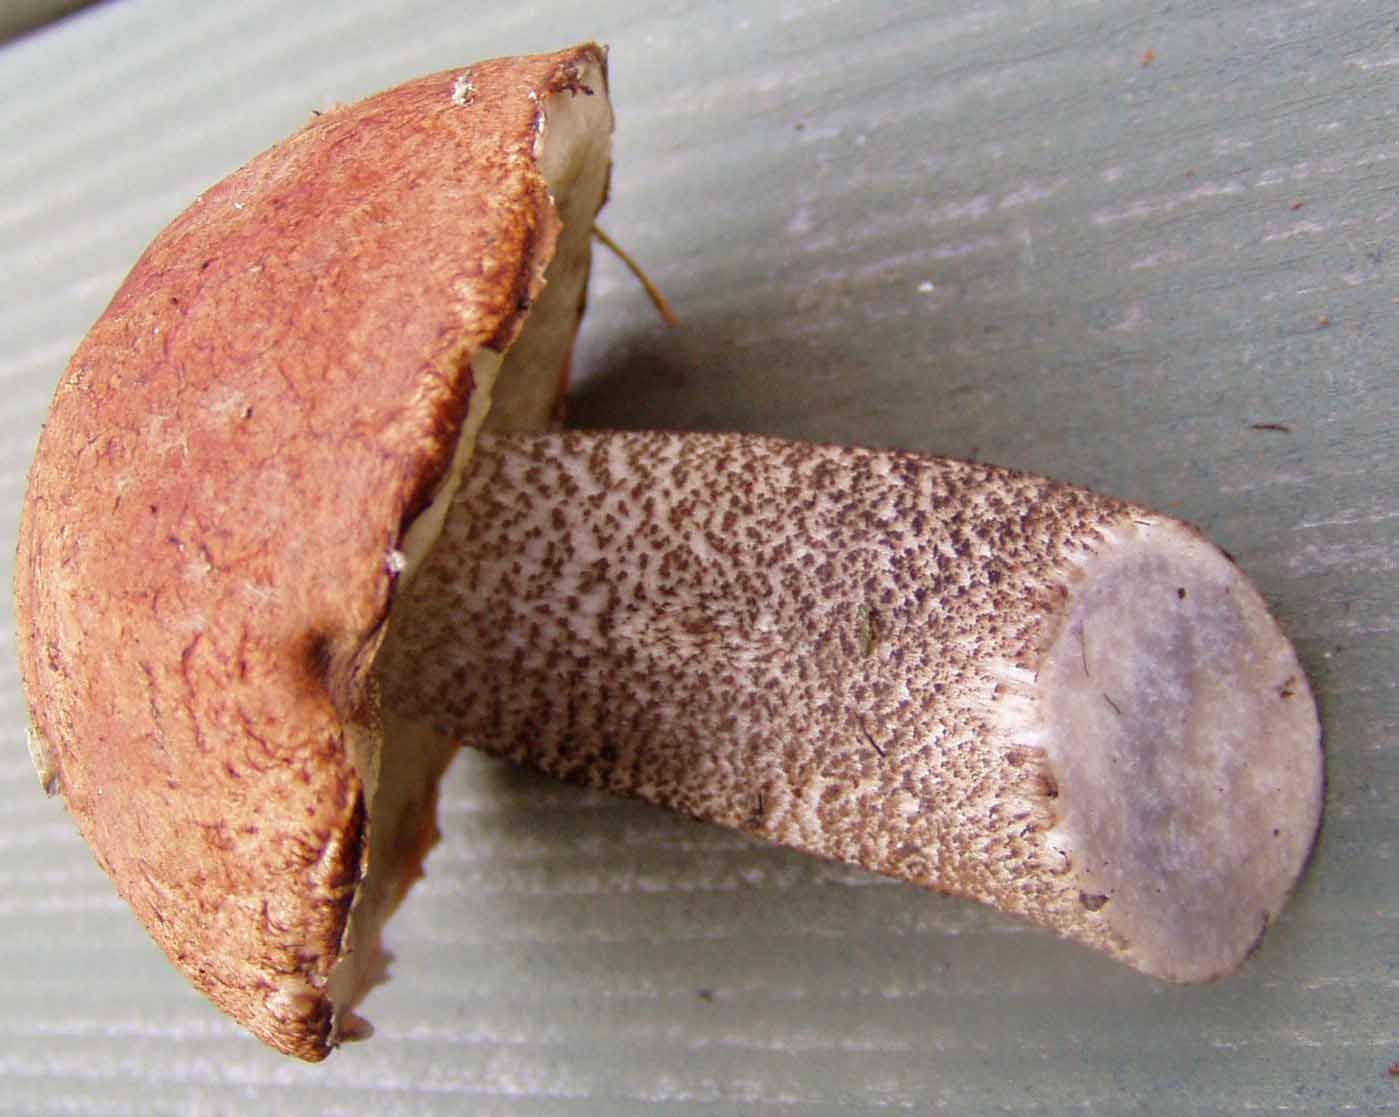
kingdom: Fungi
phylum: Basidiomycota
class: Agaricomycetes
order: Boletales
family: Boletaceae
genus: Leccinum
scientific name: Leccinum vulpinum
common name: fyrre-skælrørhat
